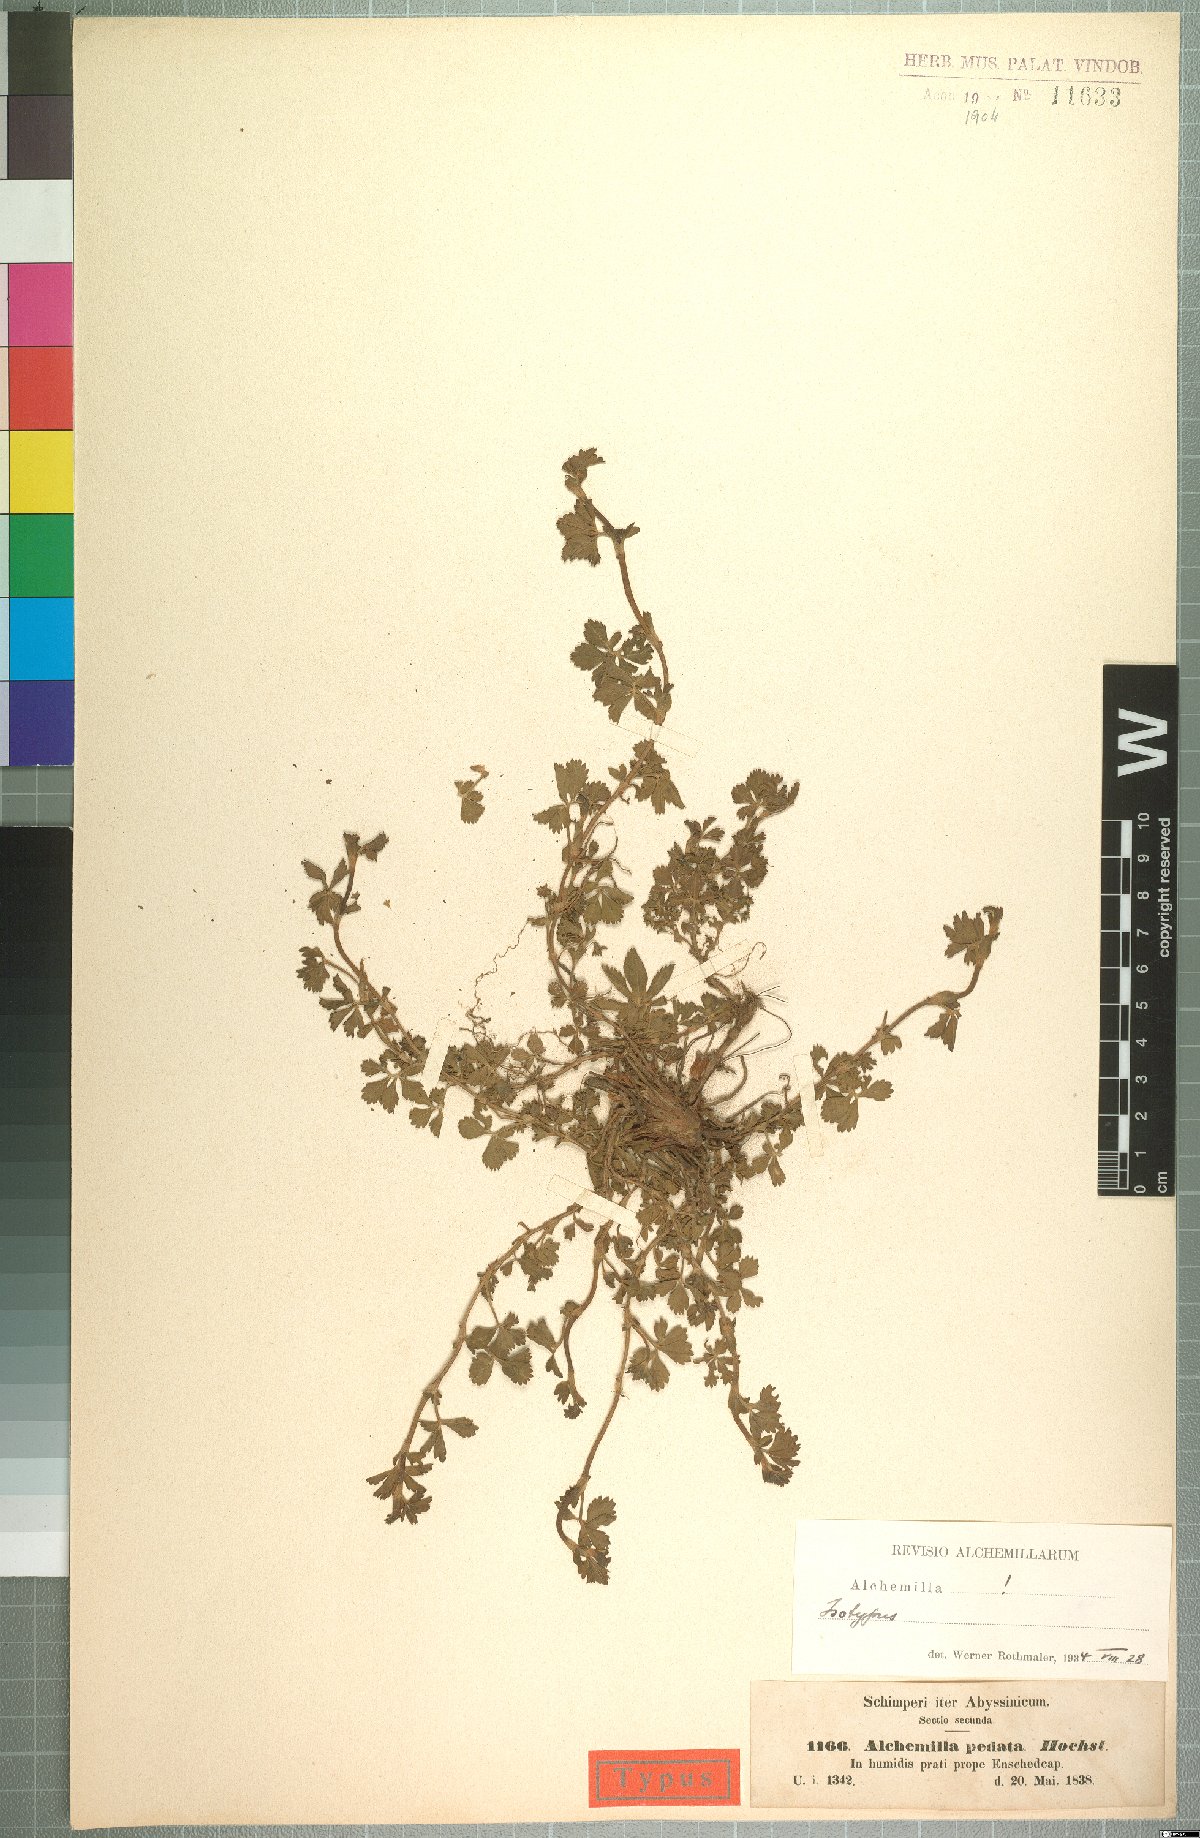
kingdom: Plantae
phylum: Tracheophyta
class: Magnoliopsida
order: Rosales
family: Rosaceae
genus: Alchemilla
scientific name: Alchemilla pedata
